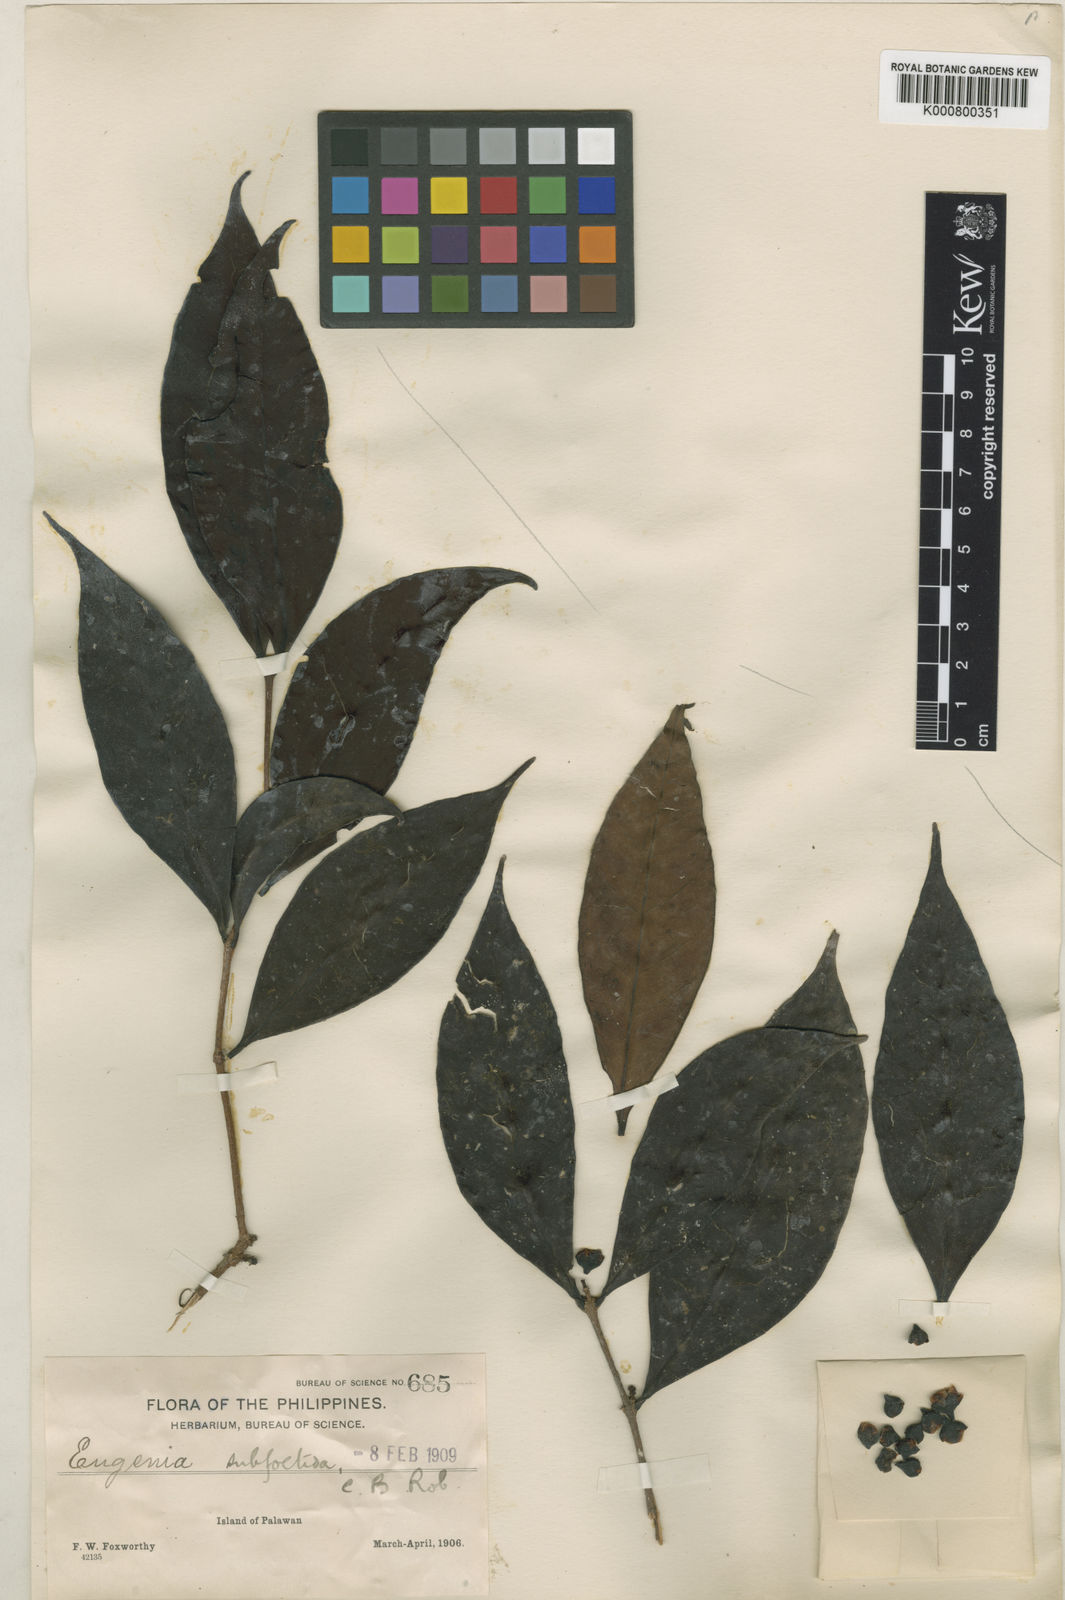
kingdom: Plantae
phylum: Tracheophyta
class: Magnoliopsida
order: Myrtales
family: Myrtaceae
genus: Syzygium
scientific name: Syzygium subfoetidum
